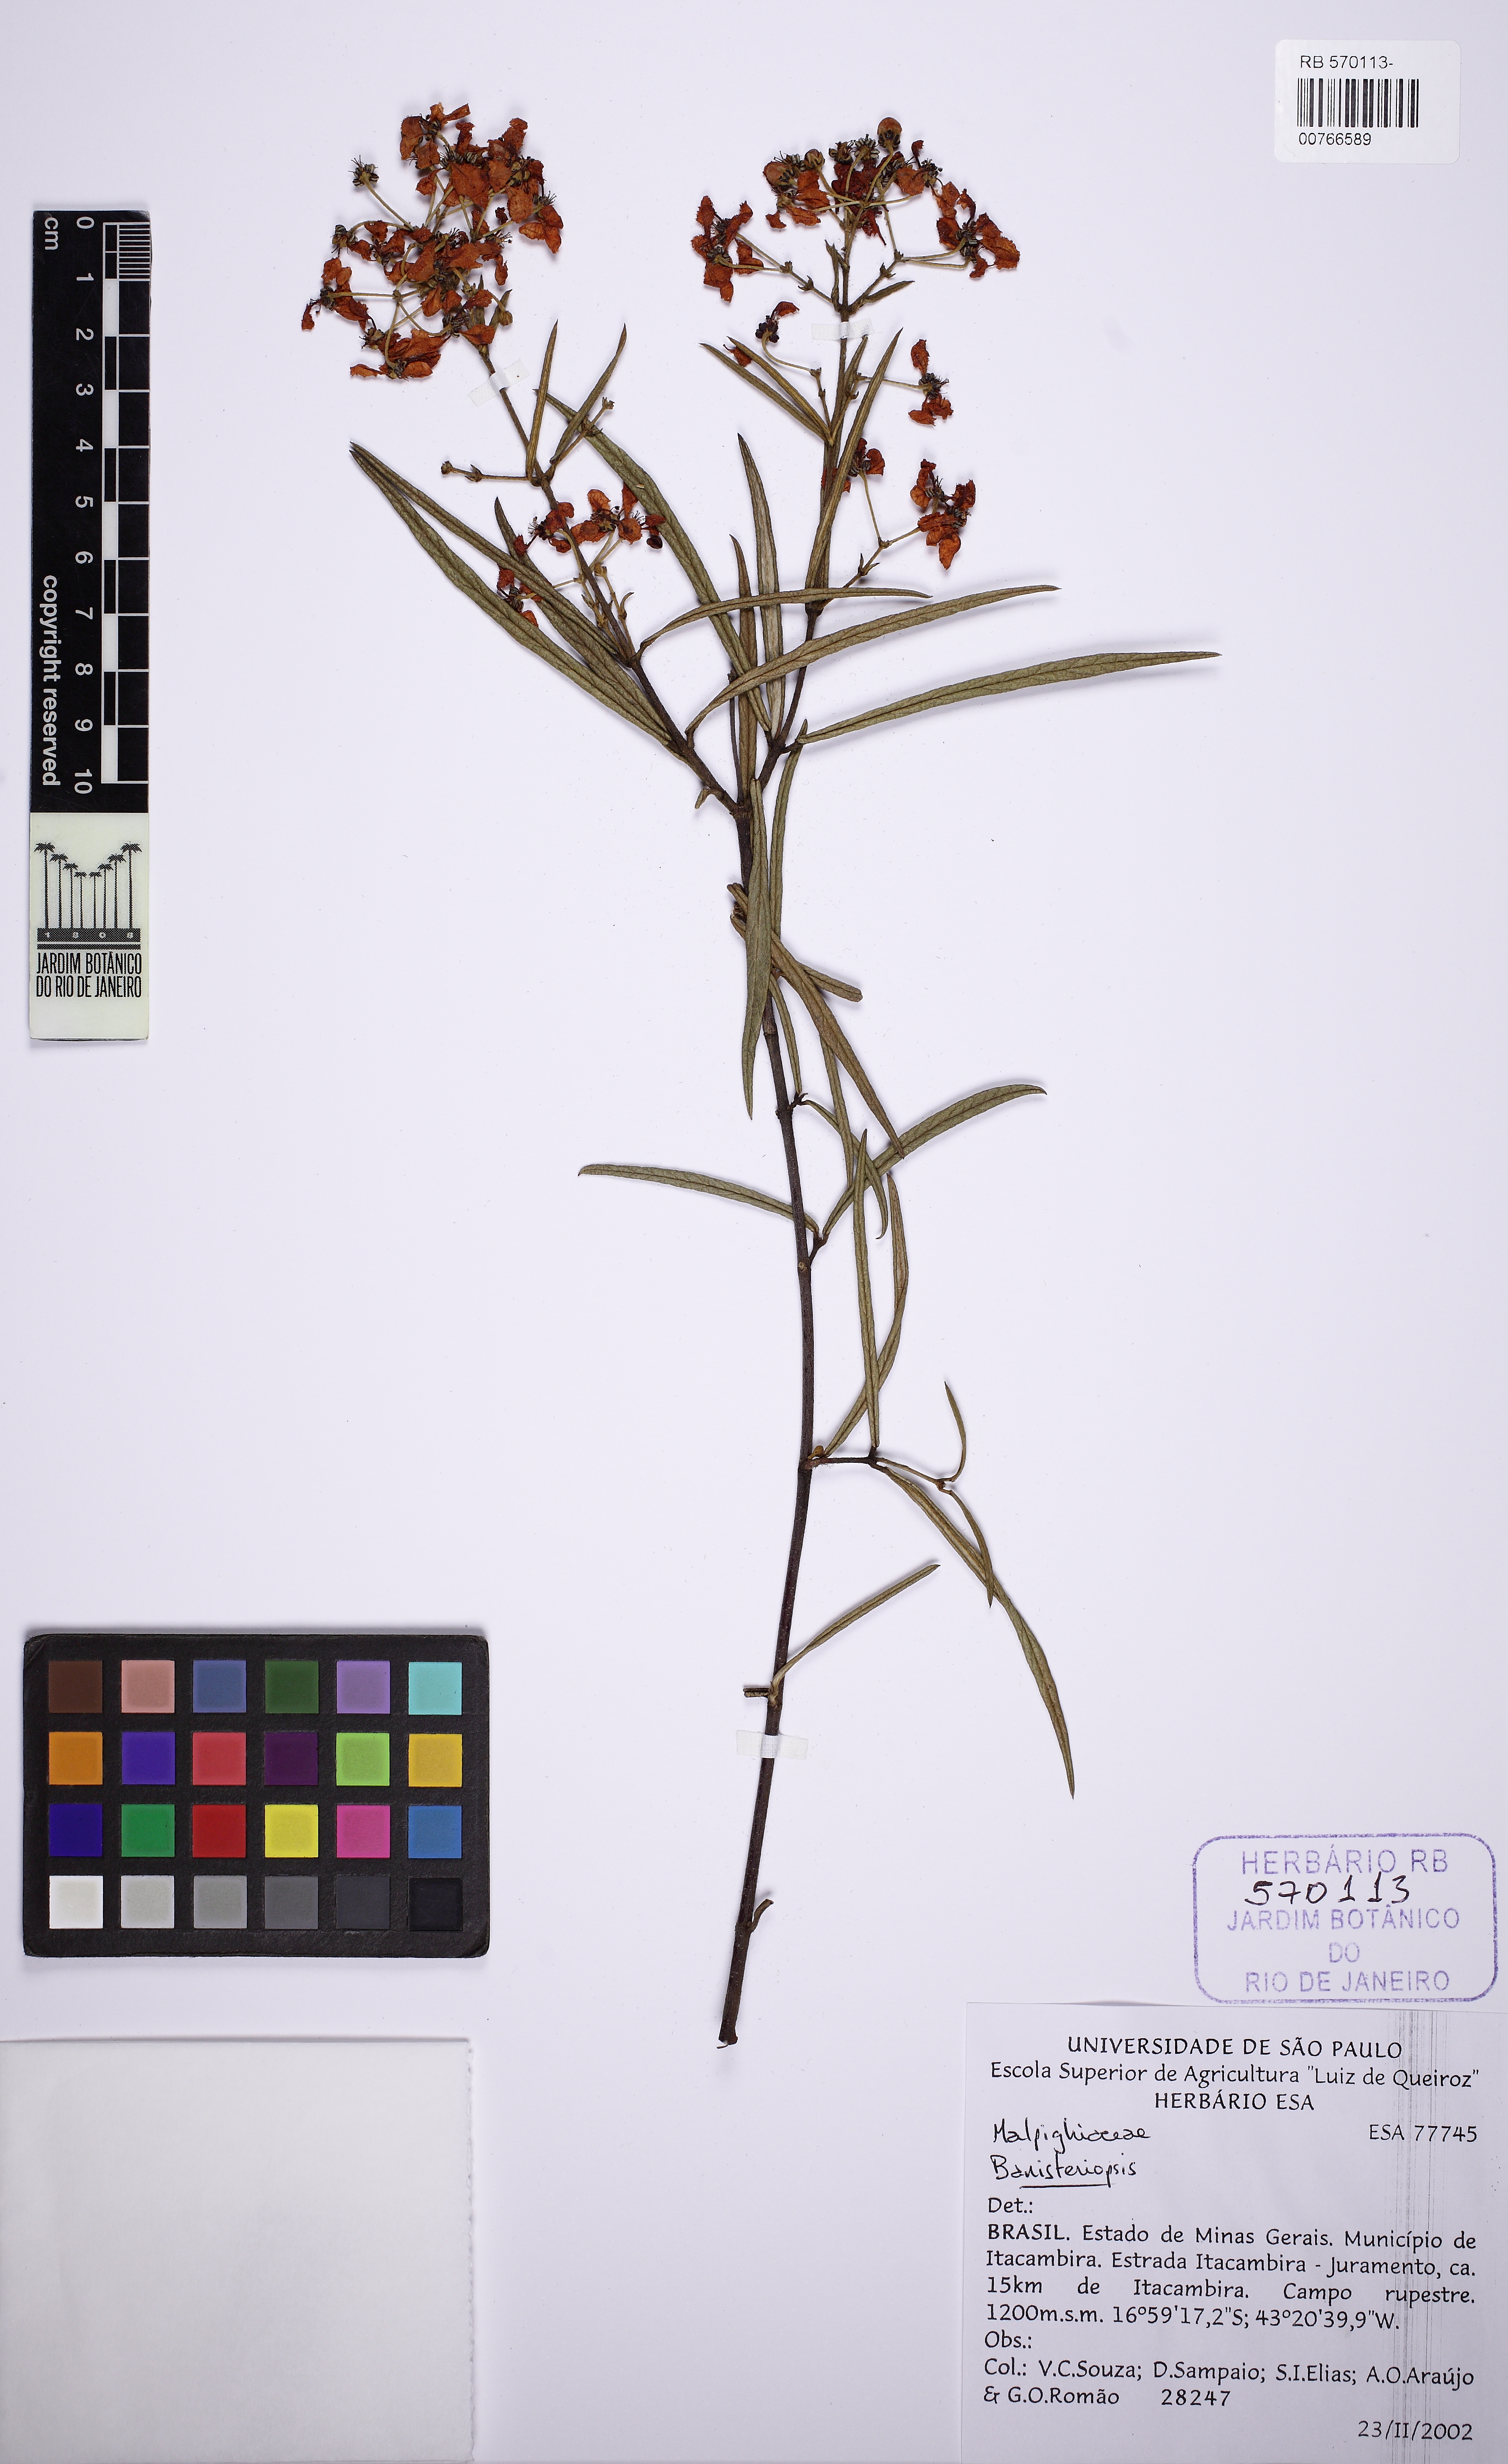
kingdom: Plantae
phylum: Tracheophyta
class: Magnoliopsida
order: Malpighiales
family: Malpighiaceae
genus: Banisteriopsis
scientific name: Banisteriopsis angustifolia
